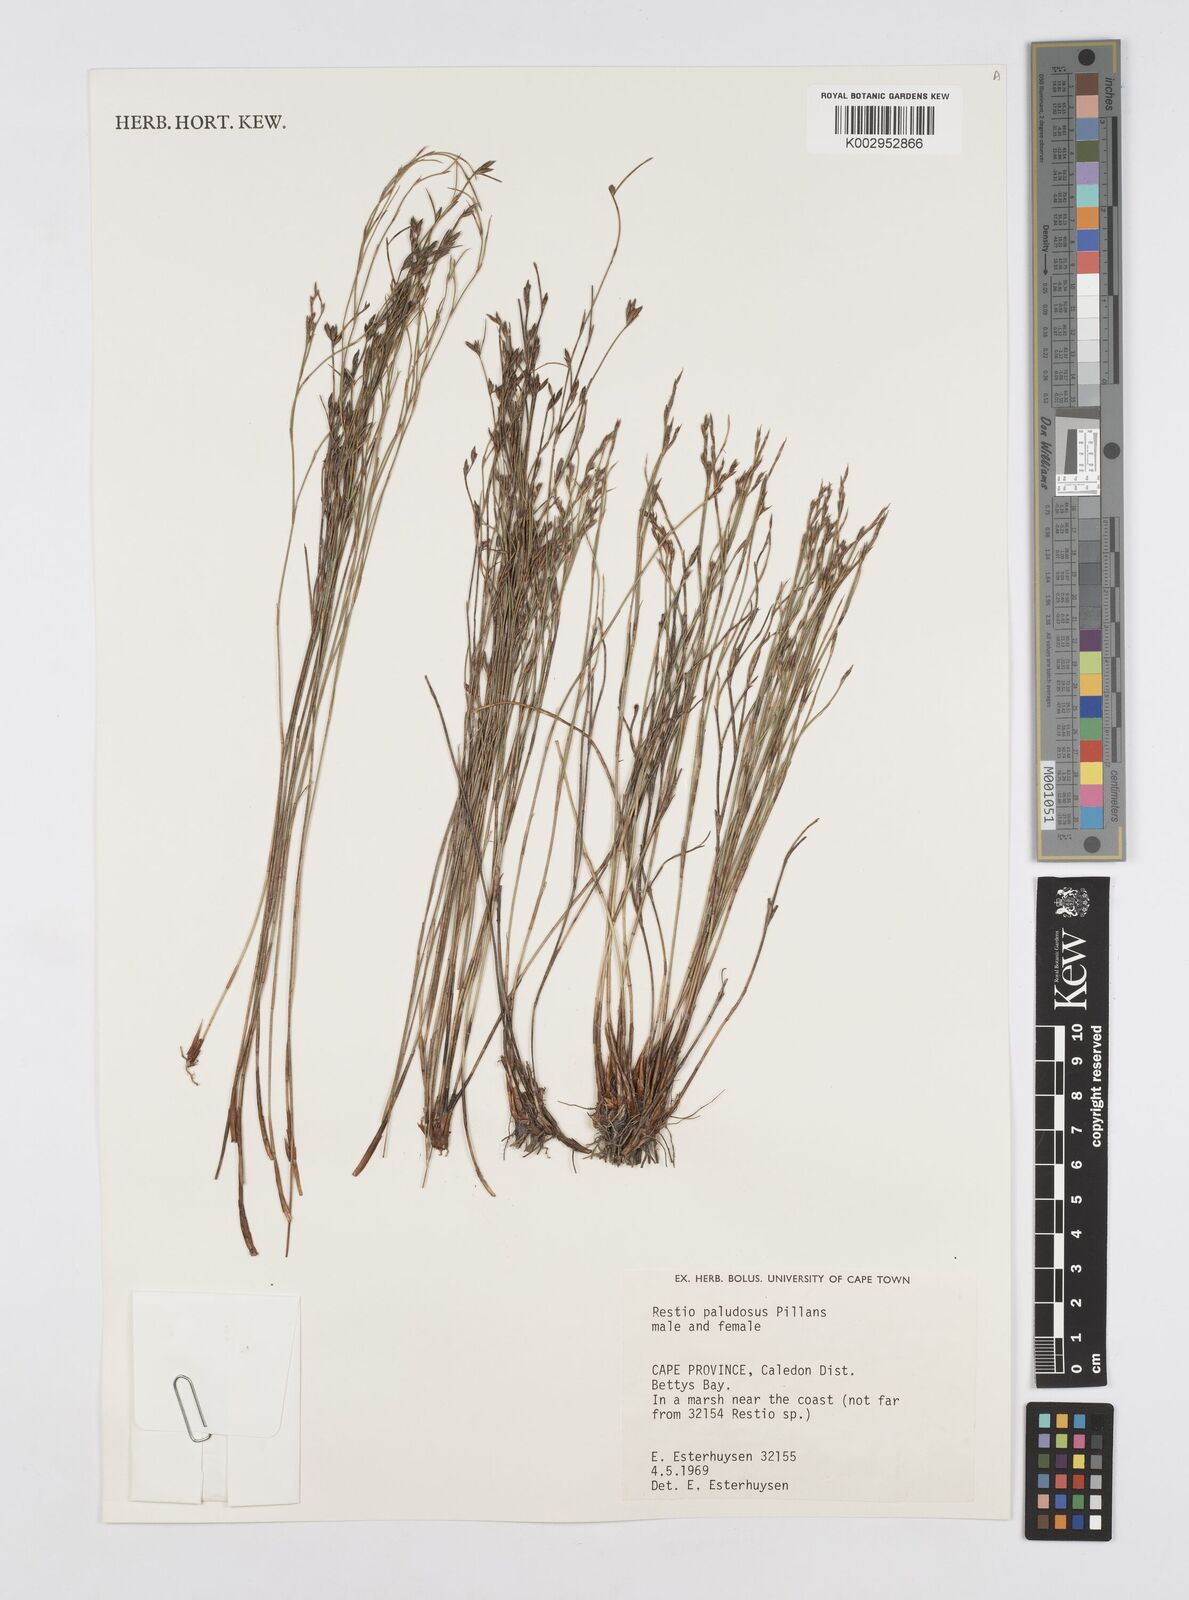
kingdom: Plantae
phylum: Tracheophyta
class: Liliopsida
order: Poales
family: Restionaceae
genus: Restio
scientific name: Restio paludosus
